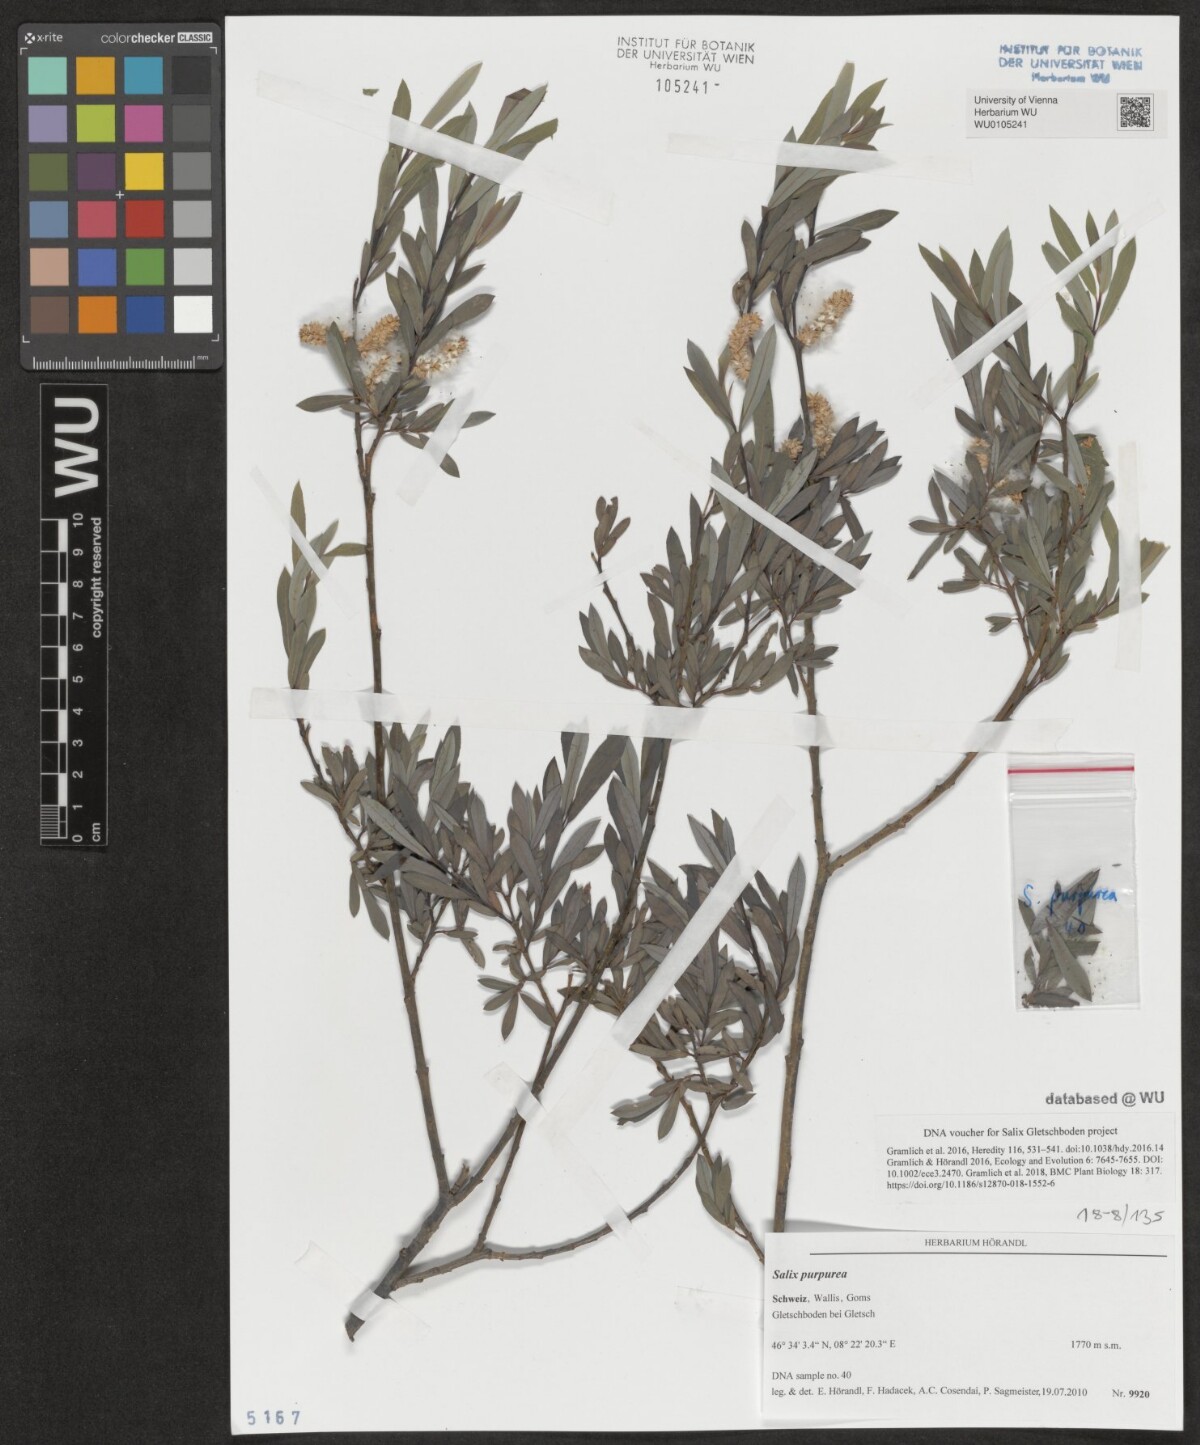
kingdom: Plantae
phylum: Tracheophyta
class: Magnoliopsida
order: Malpighiales
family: Salicaceae
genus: Salix
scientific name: Salix purpurea
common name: Purple willow
